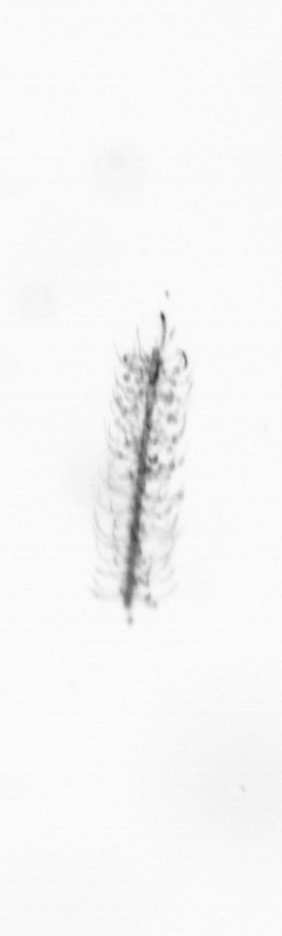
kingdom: Chromista
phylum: Ochrophyta
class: Bacillariophyceae
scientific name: Bacillariophyceae
